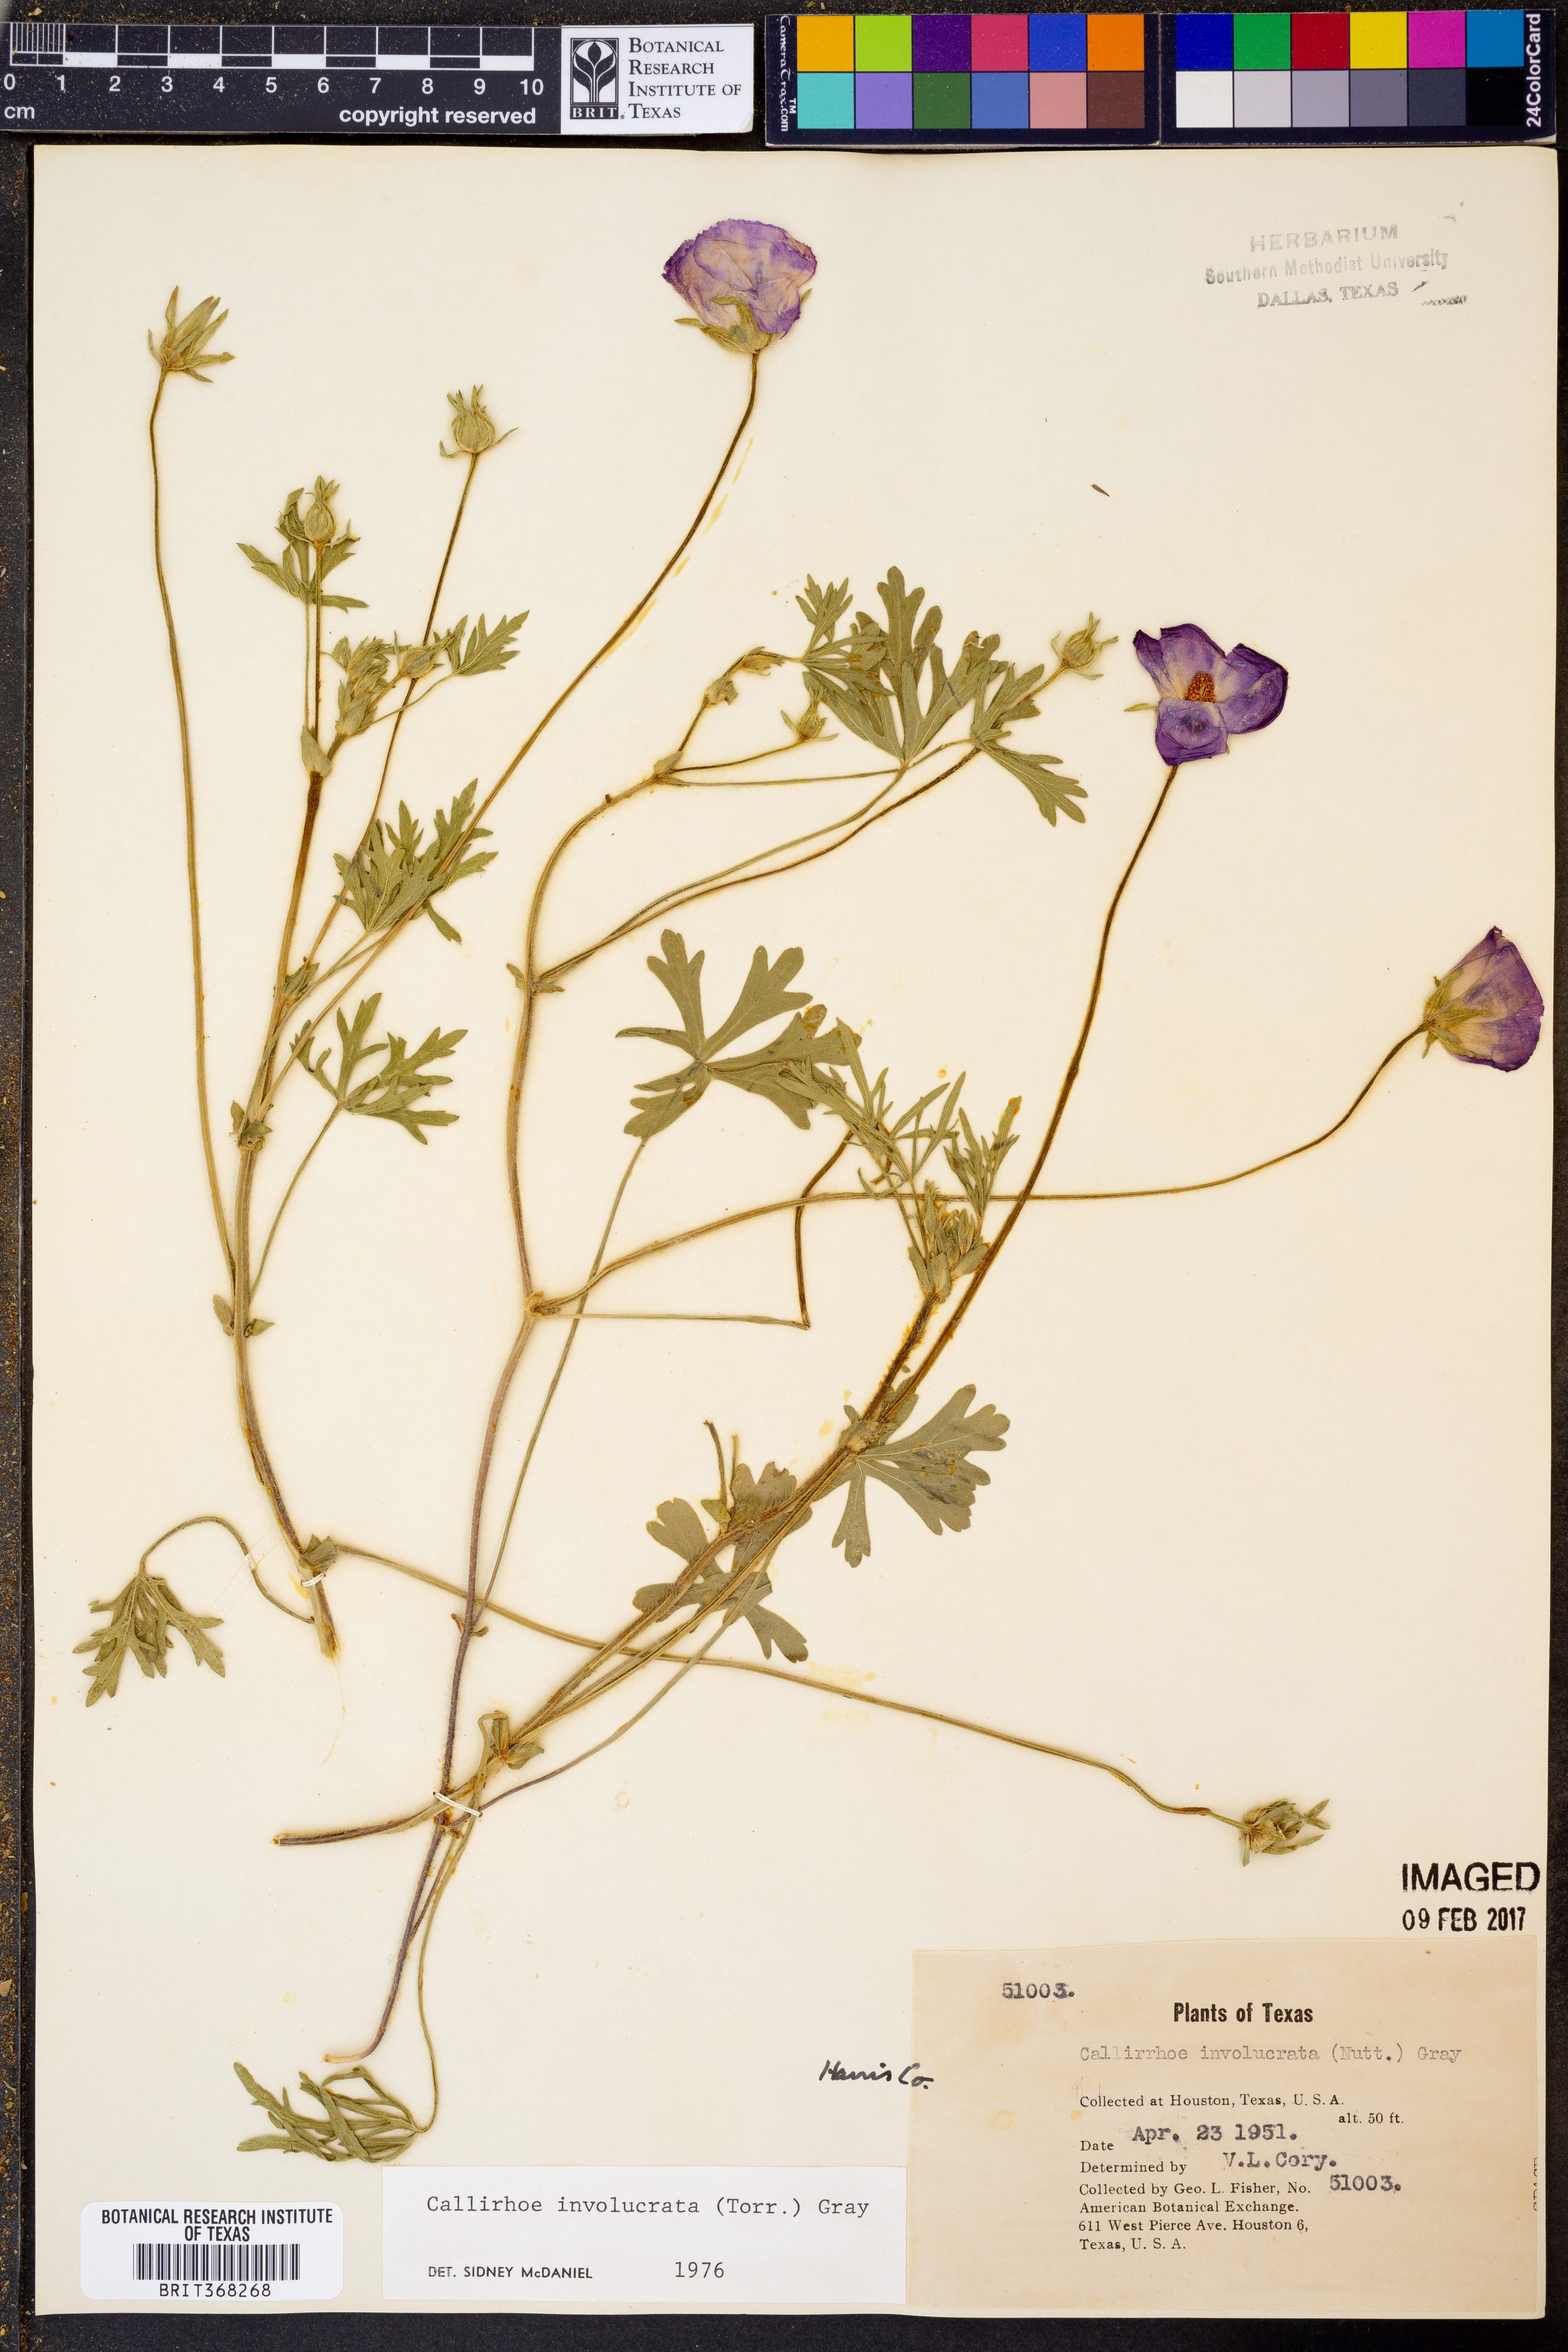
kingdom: Plantae
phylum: Tracheophyta
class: Magnoliopsida
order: Malvales
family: Malvaceae
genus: Callirhoe
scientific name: Callirhoe involucrata
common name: Purple poppy-mallow
